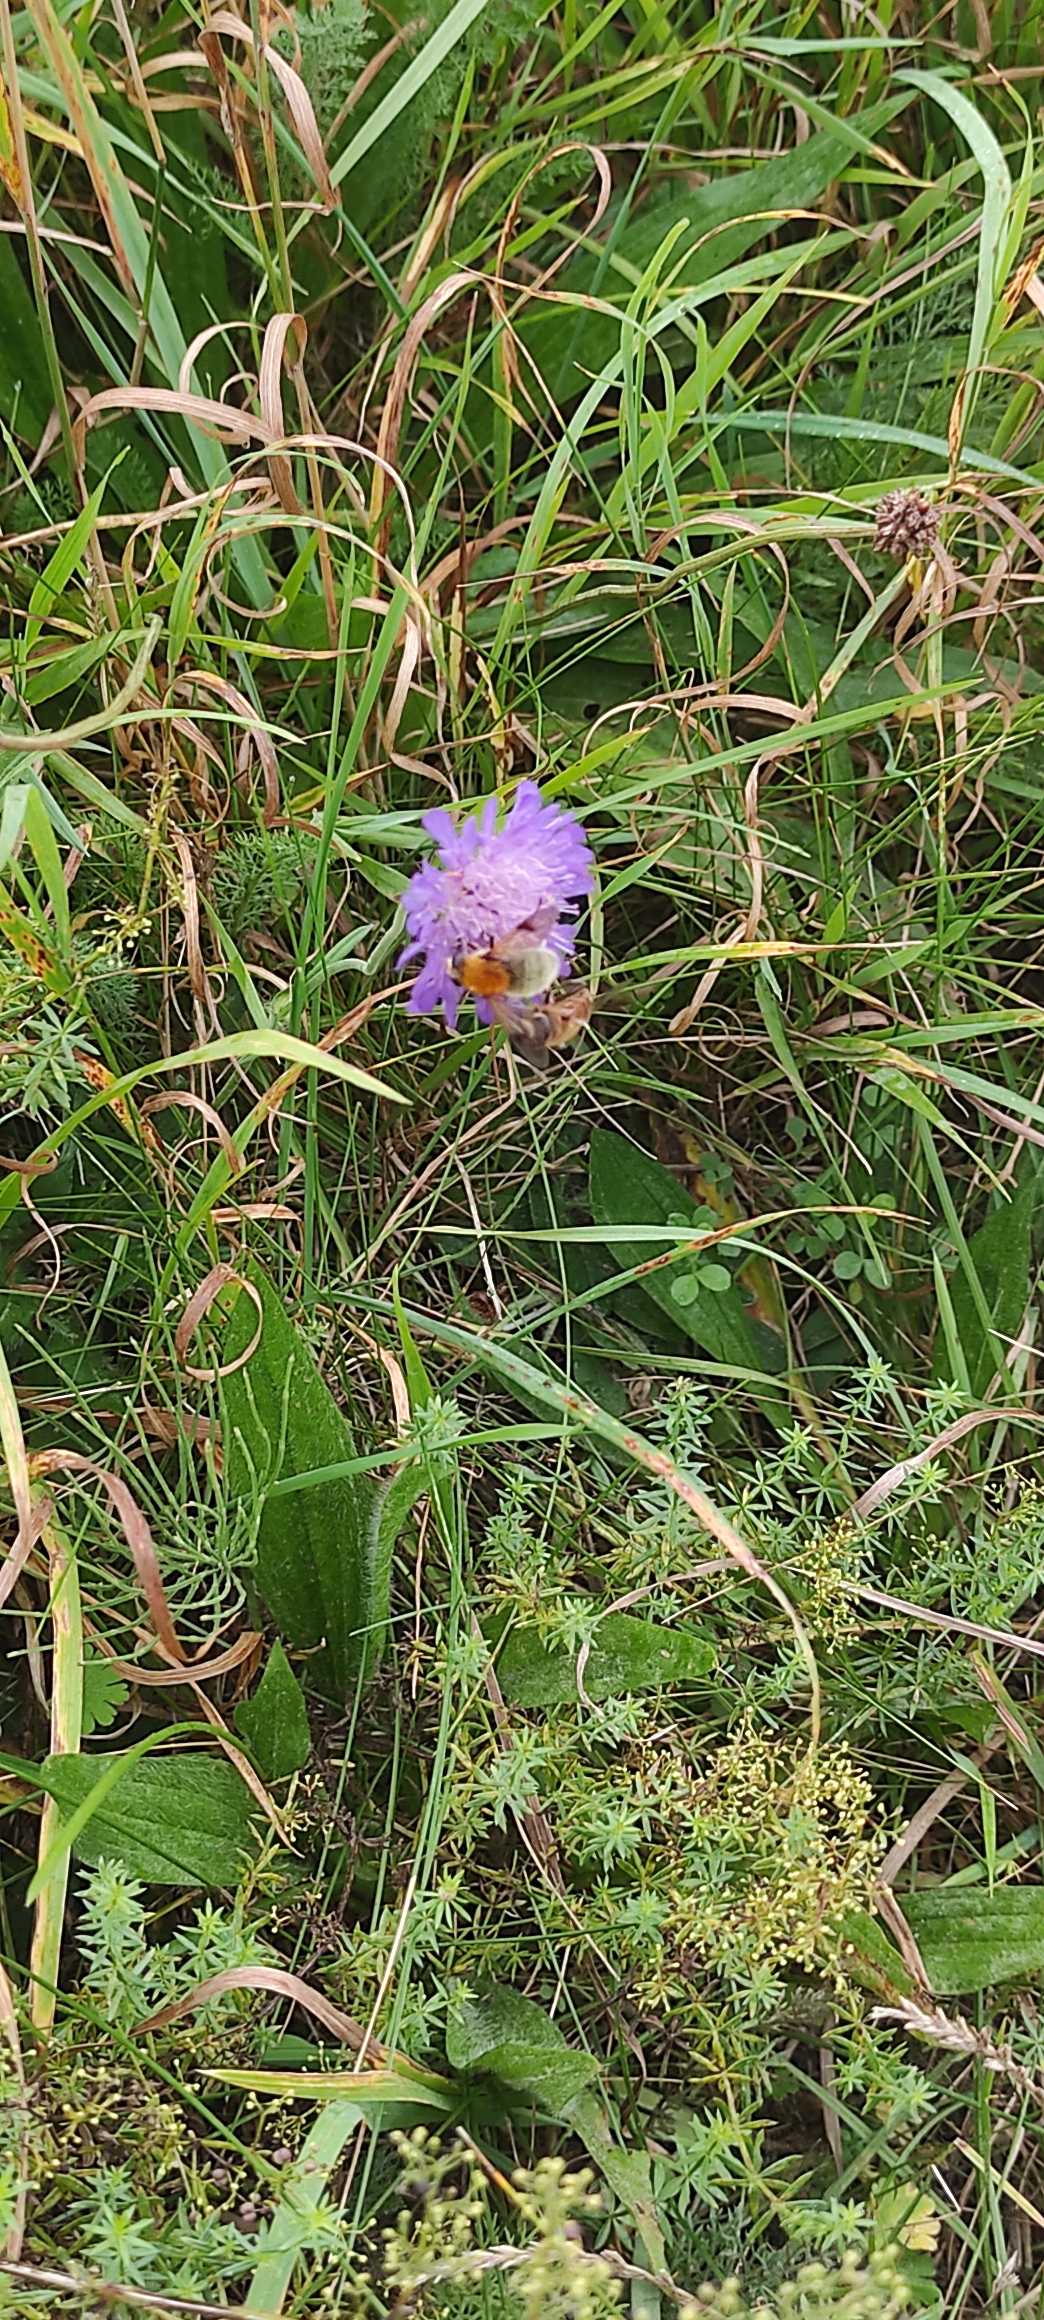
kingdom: Animalia
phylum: Arthropoda
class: Insecta
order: Diptera
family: Syrphidae
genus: Sericomyia
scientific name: Sericomyia superbiens
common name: Brun bjørnesvirreflue
